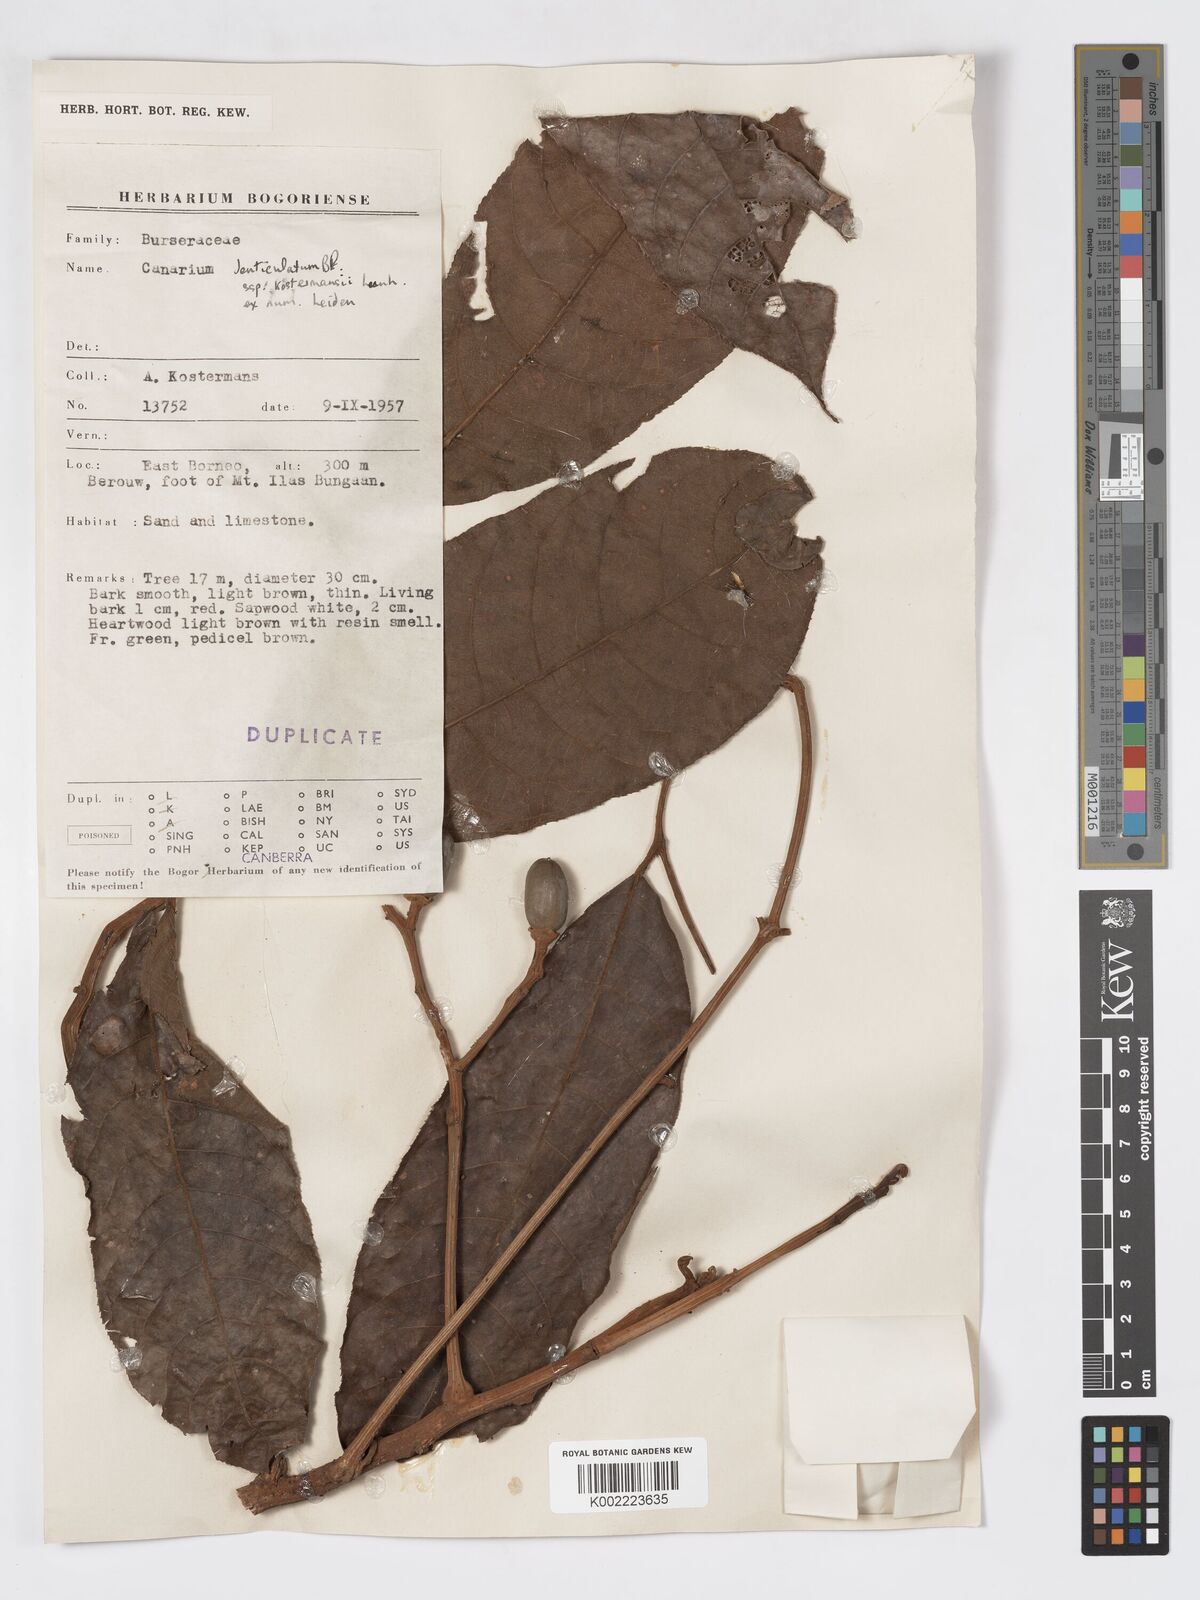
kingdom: Plantae
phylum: Tracheophyta
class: Magnoliopsida
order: Sapindales
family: Burseraceae
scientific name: Burseraceae
